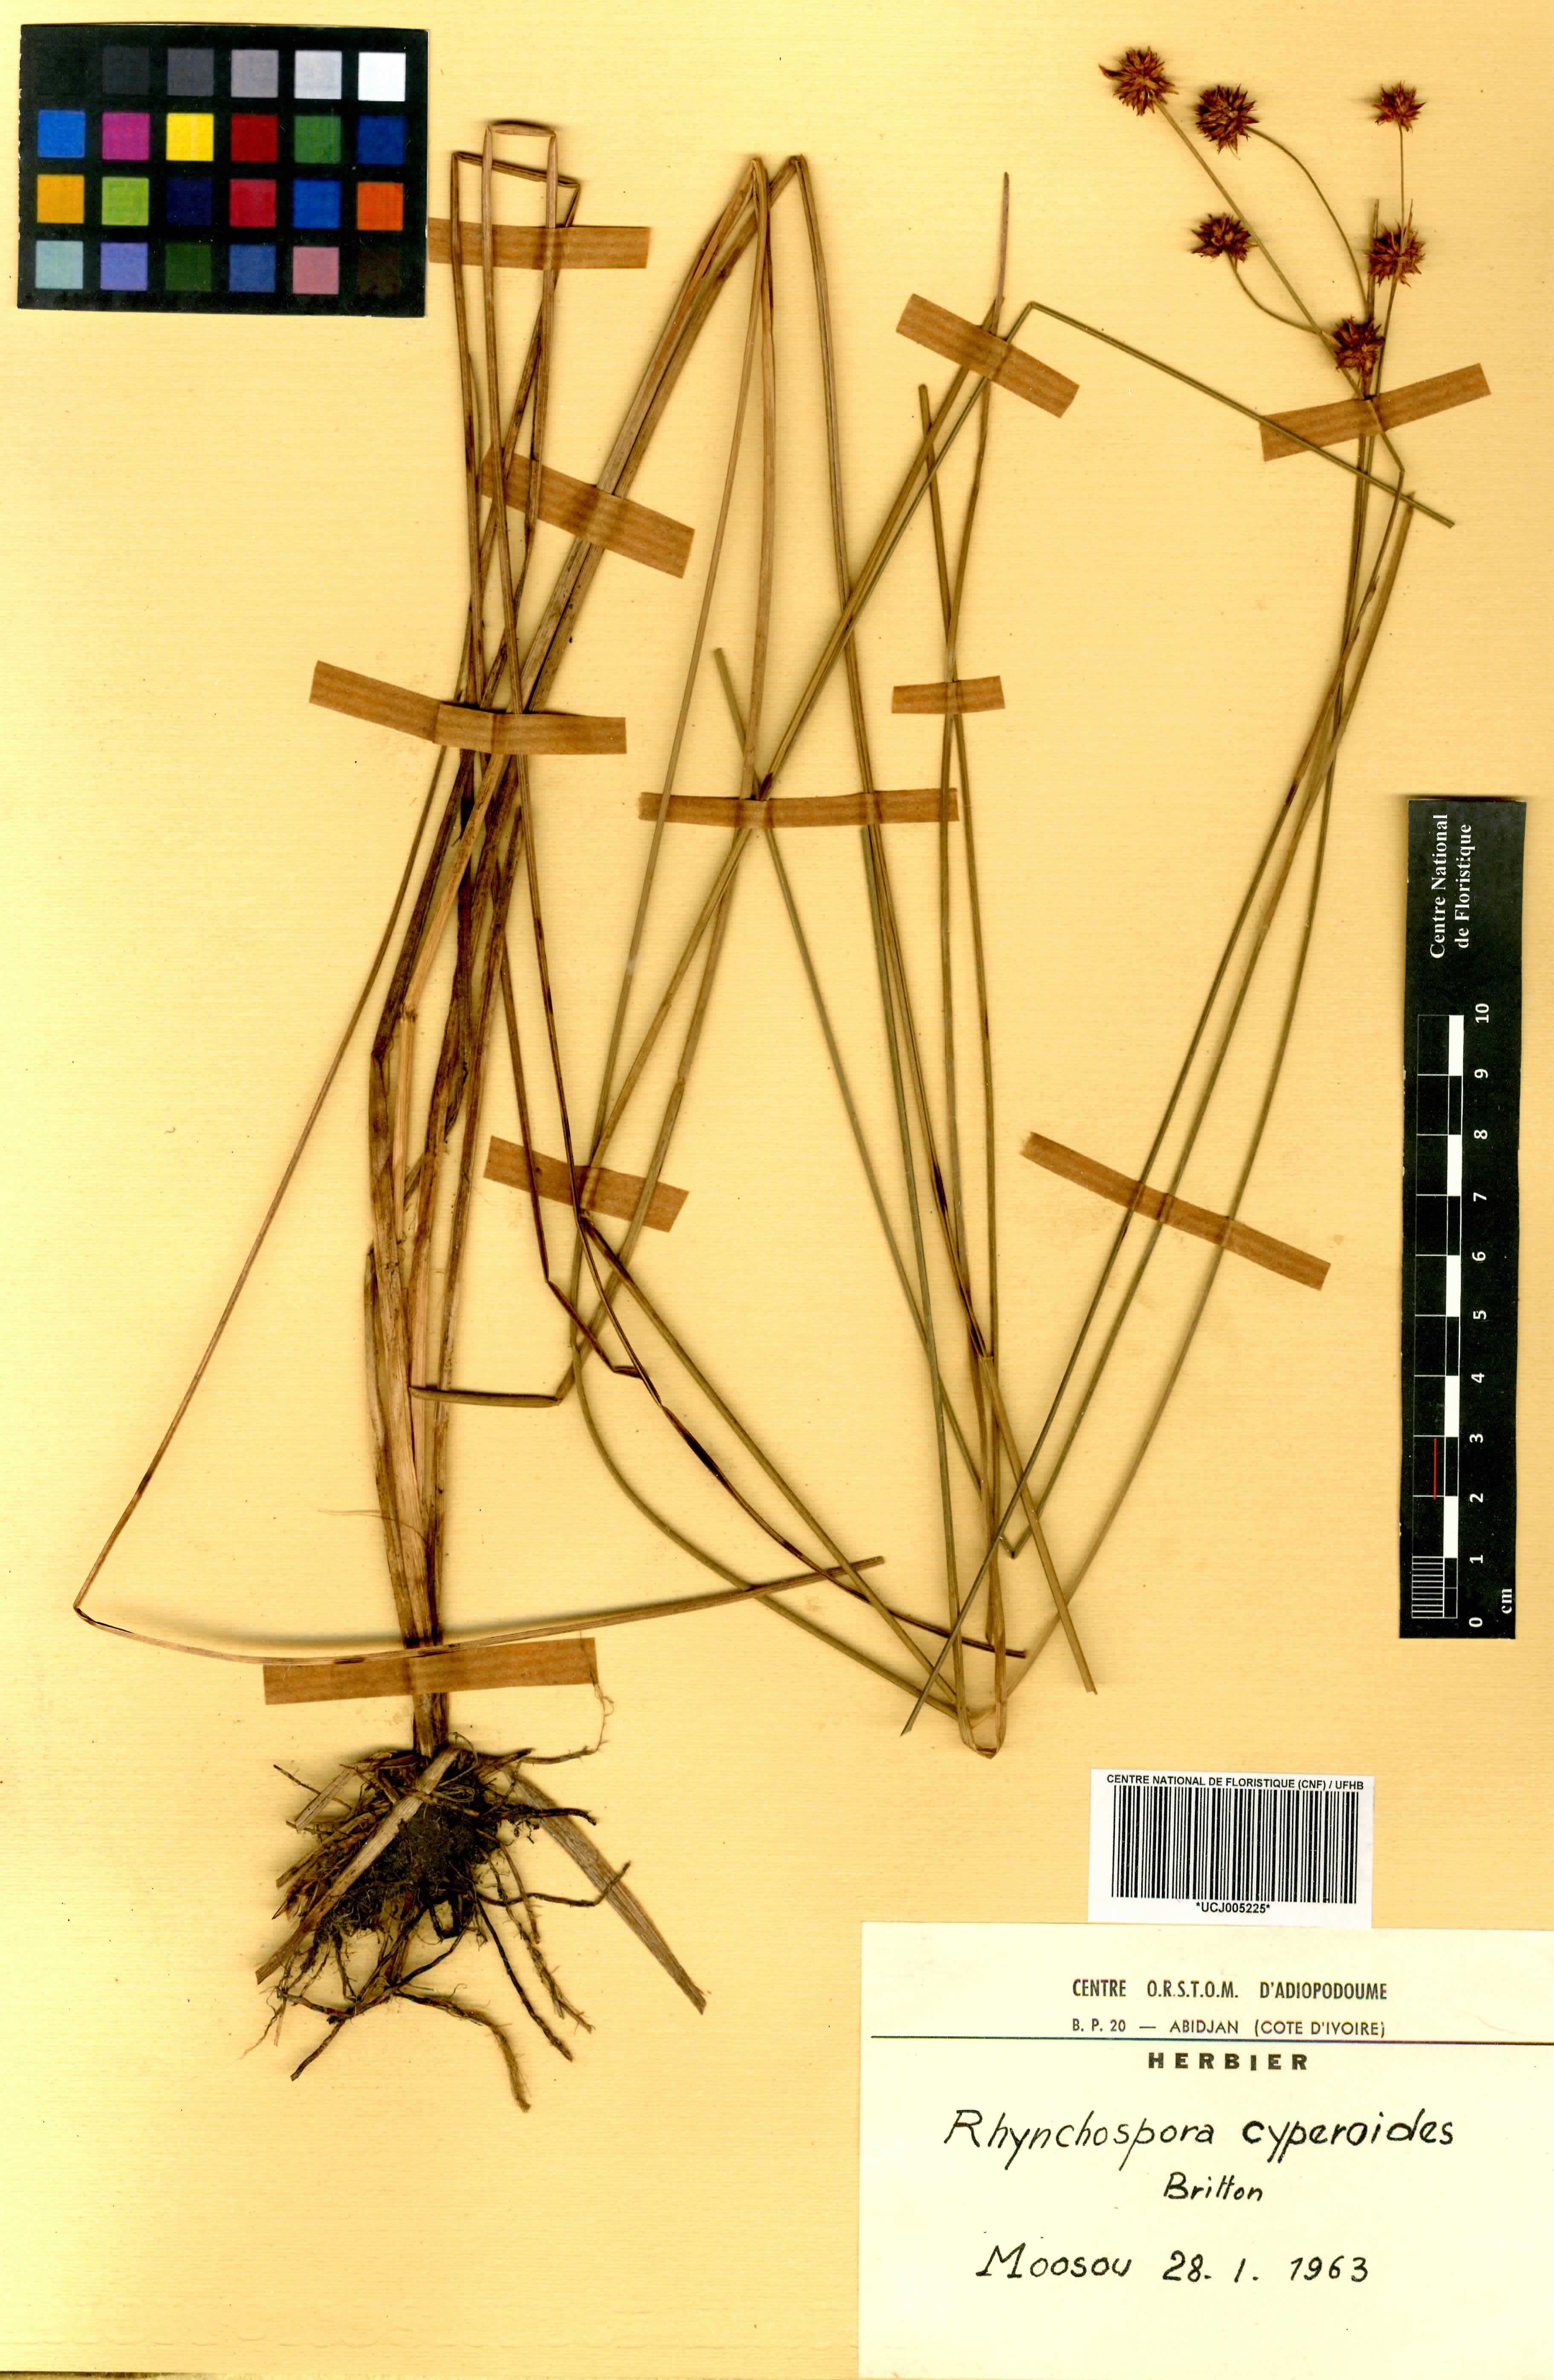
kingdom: Plantae
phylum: Tracheophyta
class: Liliopsida
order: Poales
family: Cyperaceae
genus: Rhynchospora
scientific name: Rhynchospora holoschoenoides
